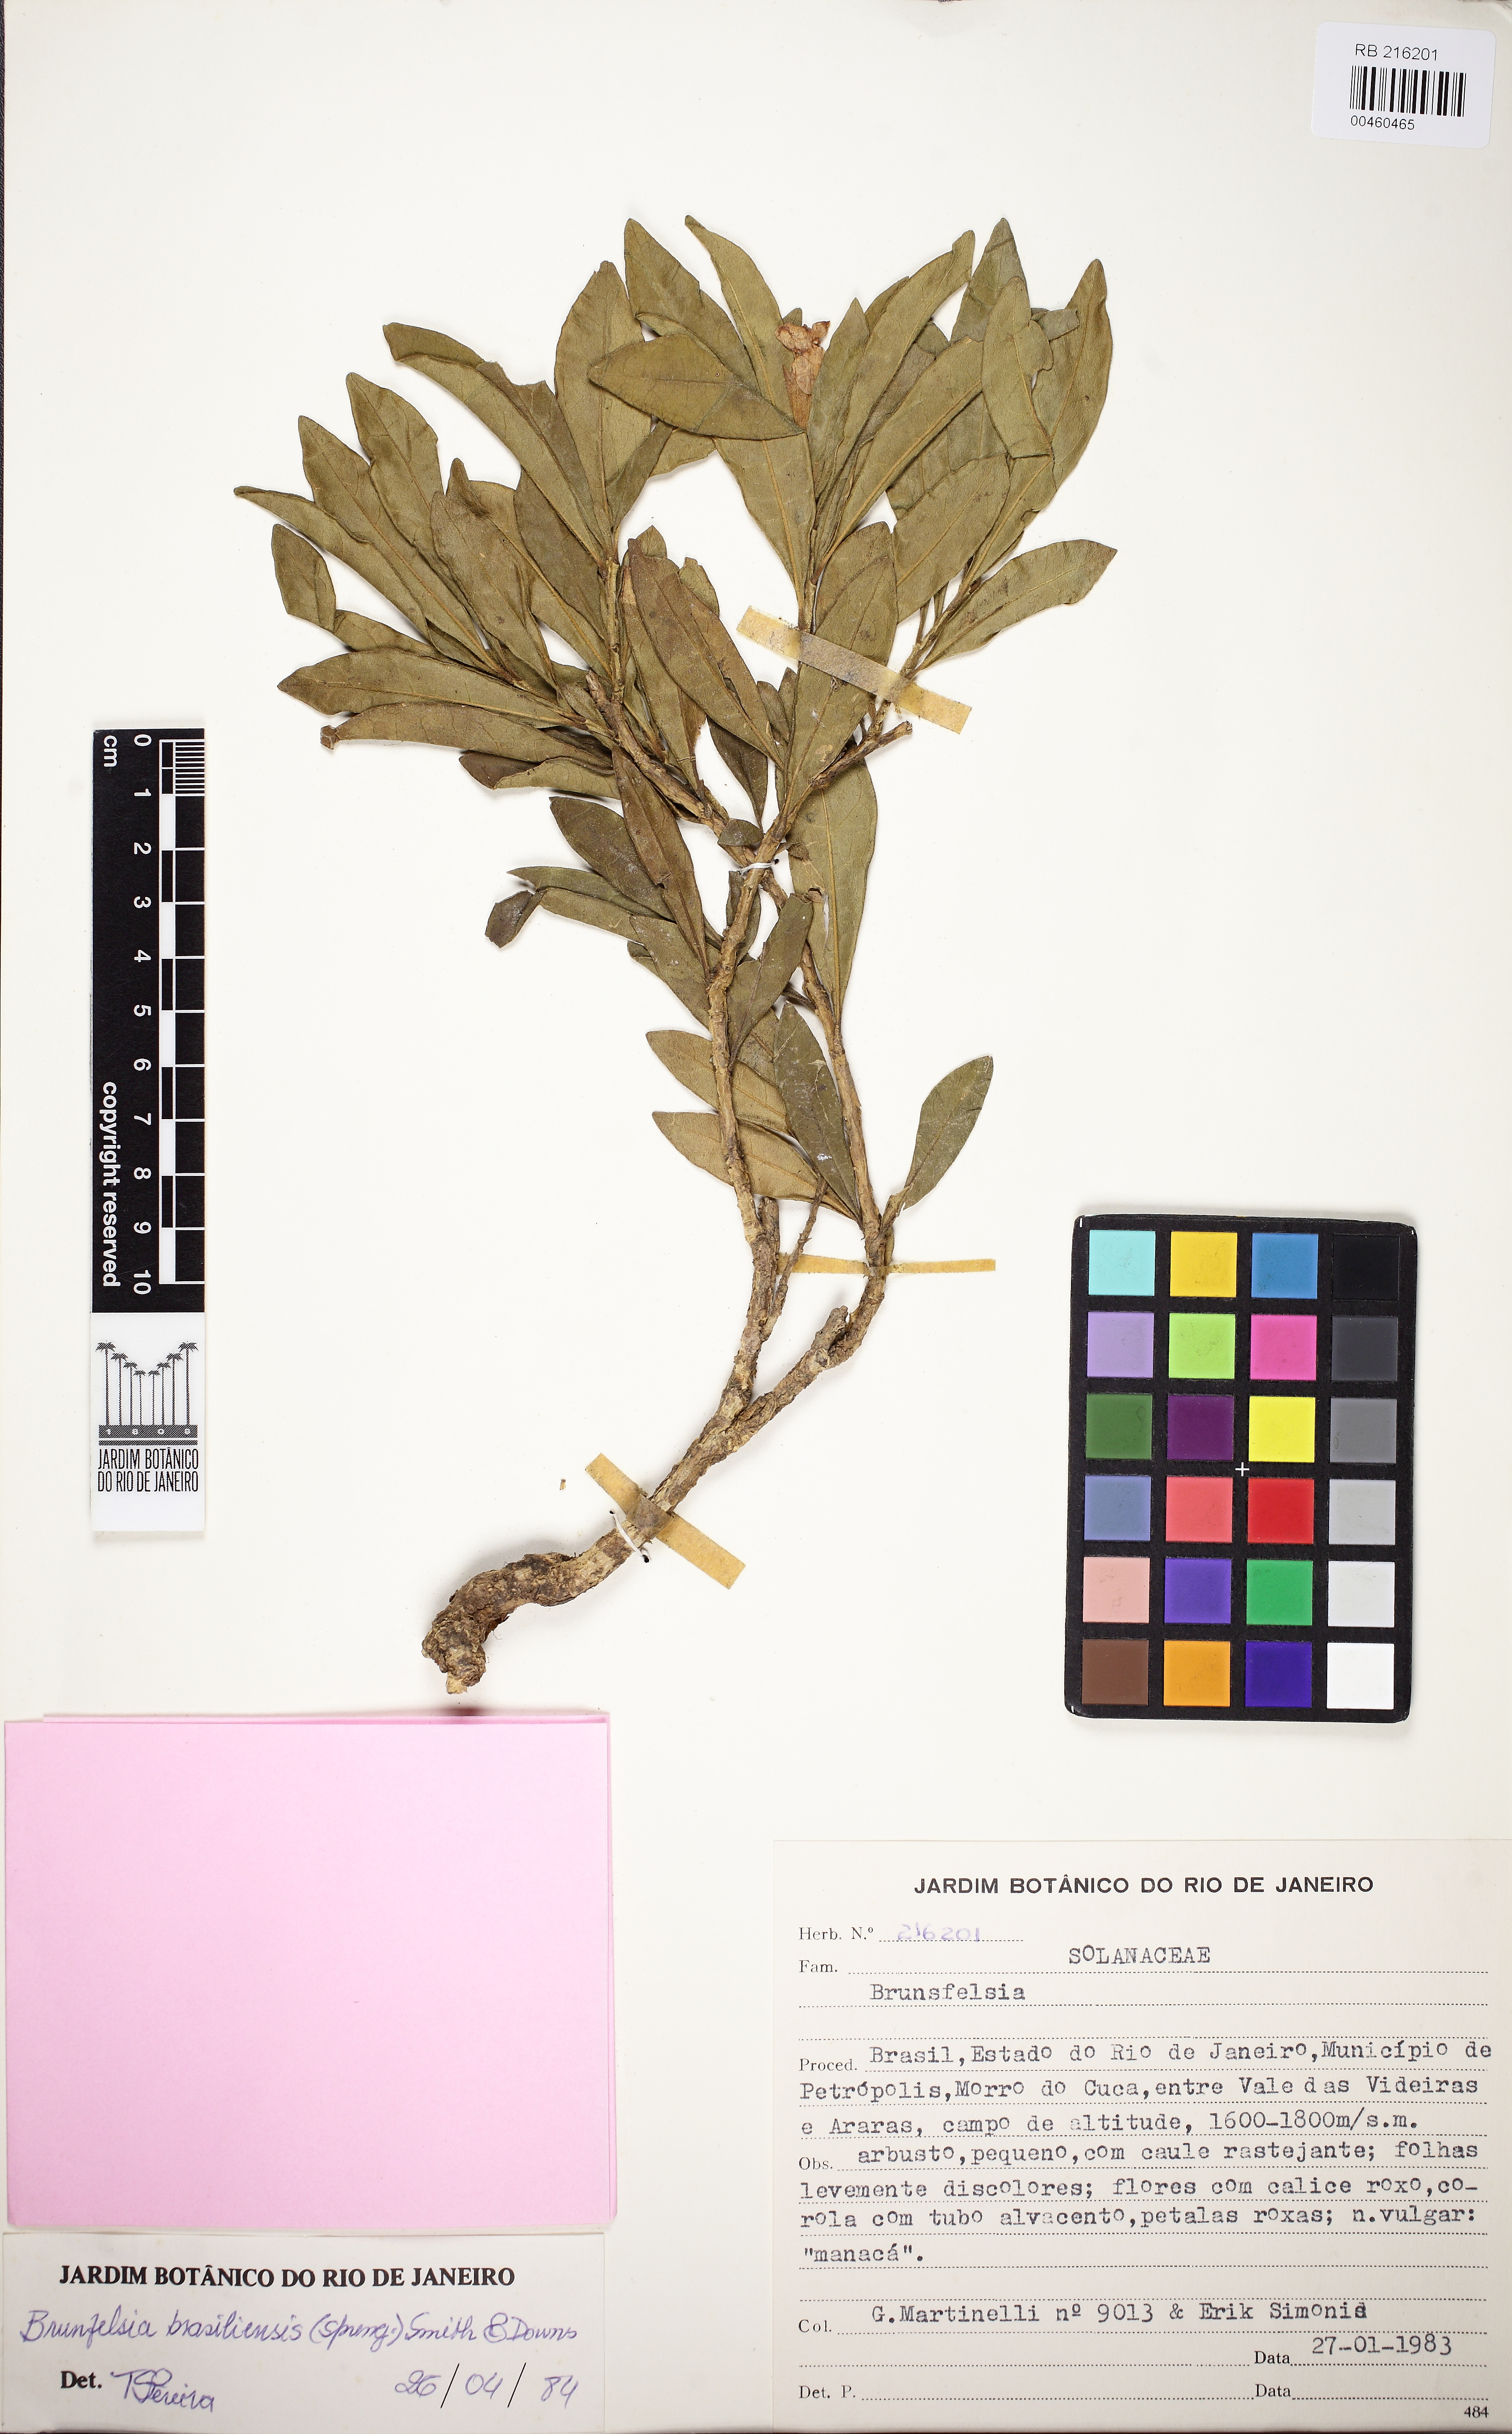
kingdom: Plantae
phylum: Tracheophyta
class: Magnoliopsida
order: Solanales
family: Solanaceae
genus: Brunfelsia
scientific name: Brunfelsia brasiliensis
